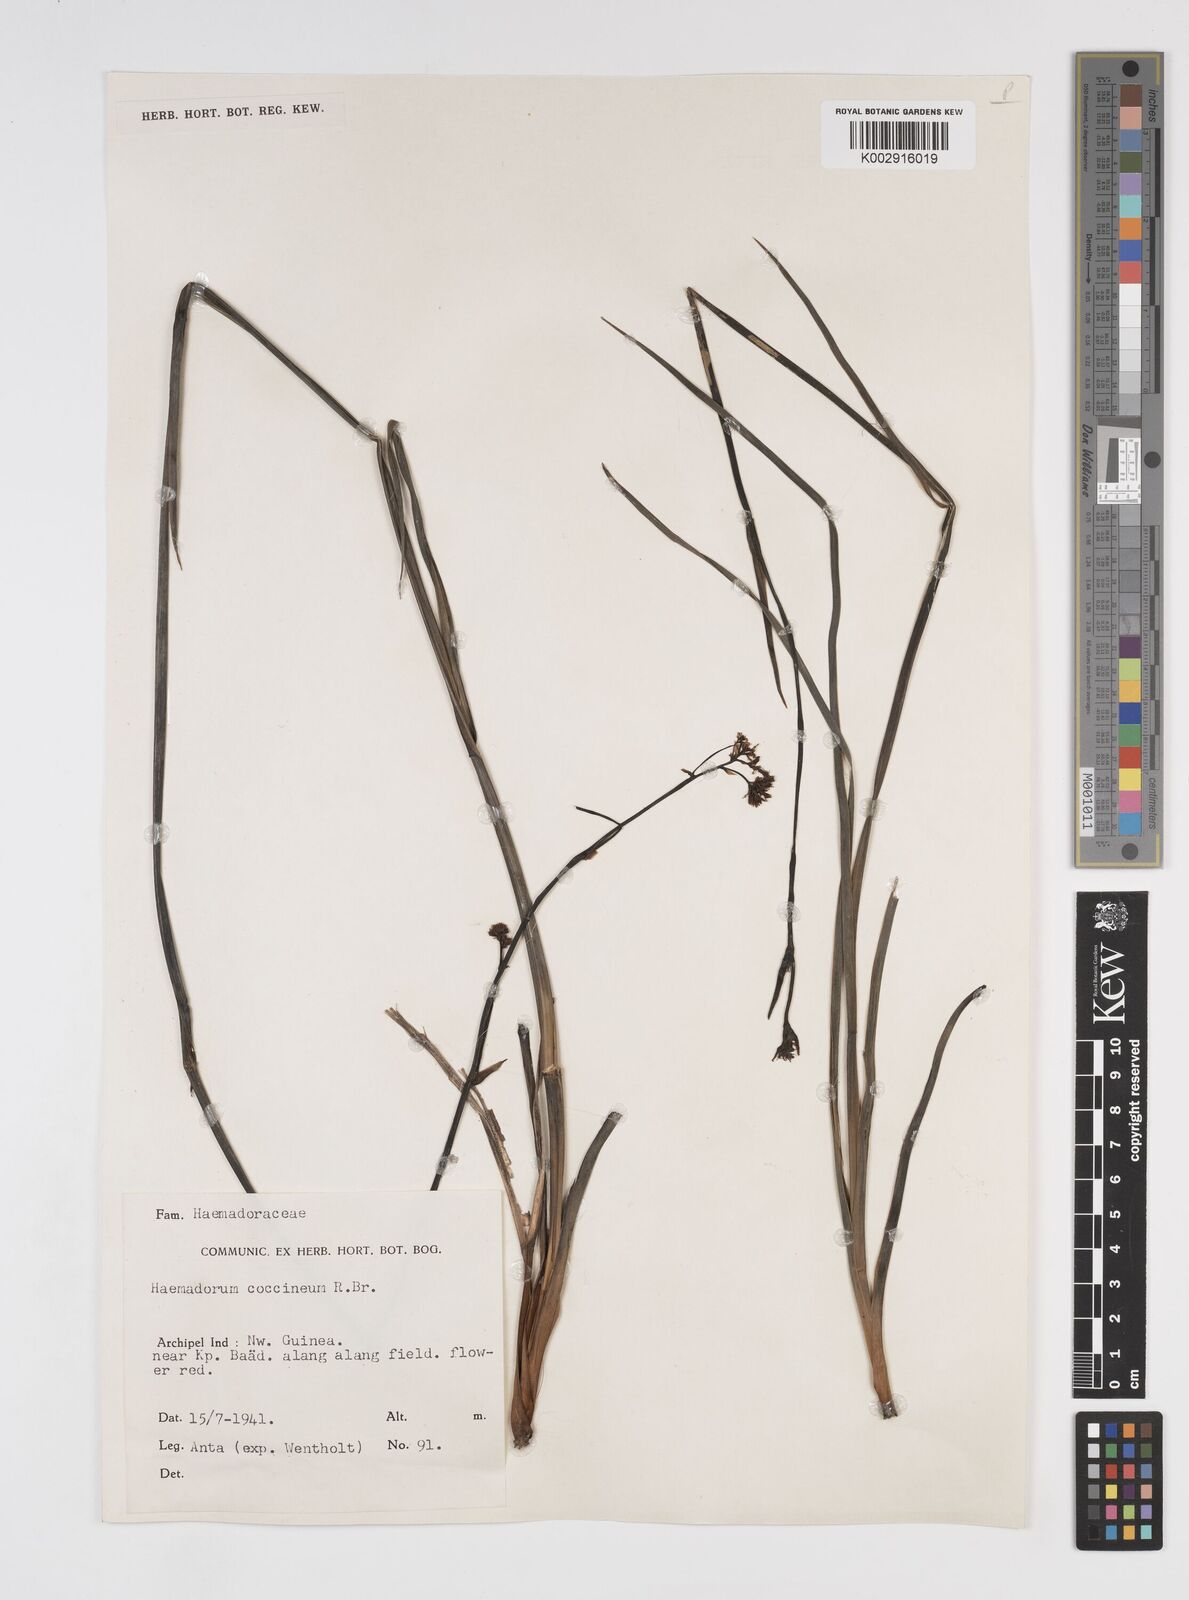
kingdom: Plantae
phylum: Tracheophyta
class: Liliopsida
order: Commelinales
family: Haemodoraceae
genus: Haemodorum
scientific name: Haemodorum corymbosum
